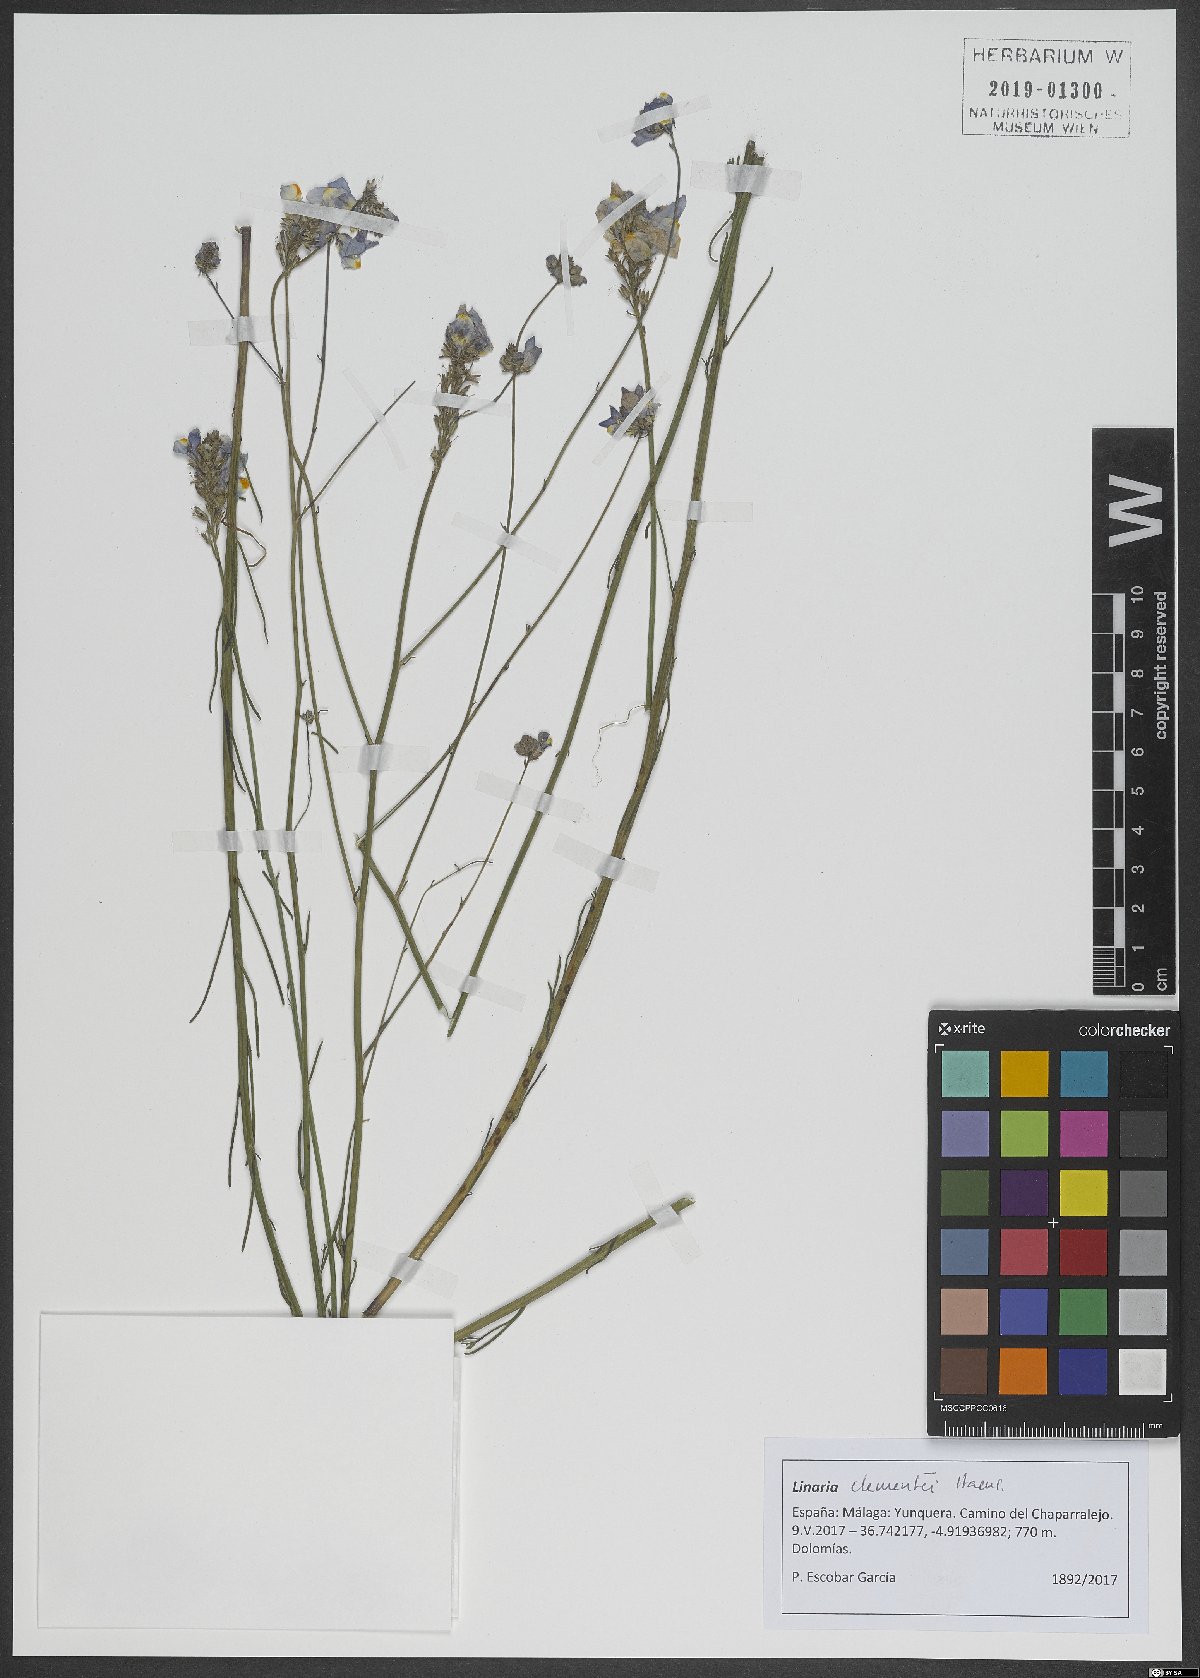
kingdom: Plantae
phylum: Tracheophyta
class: Magnoliopsida
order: Lamiales
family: Plantaginaceae
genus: Linaria
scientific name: Linaria clementei
